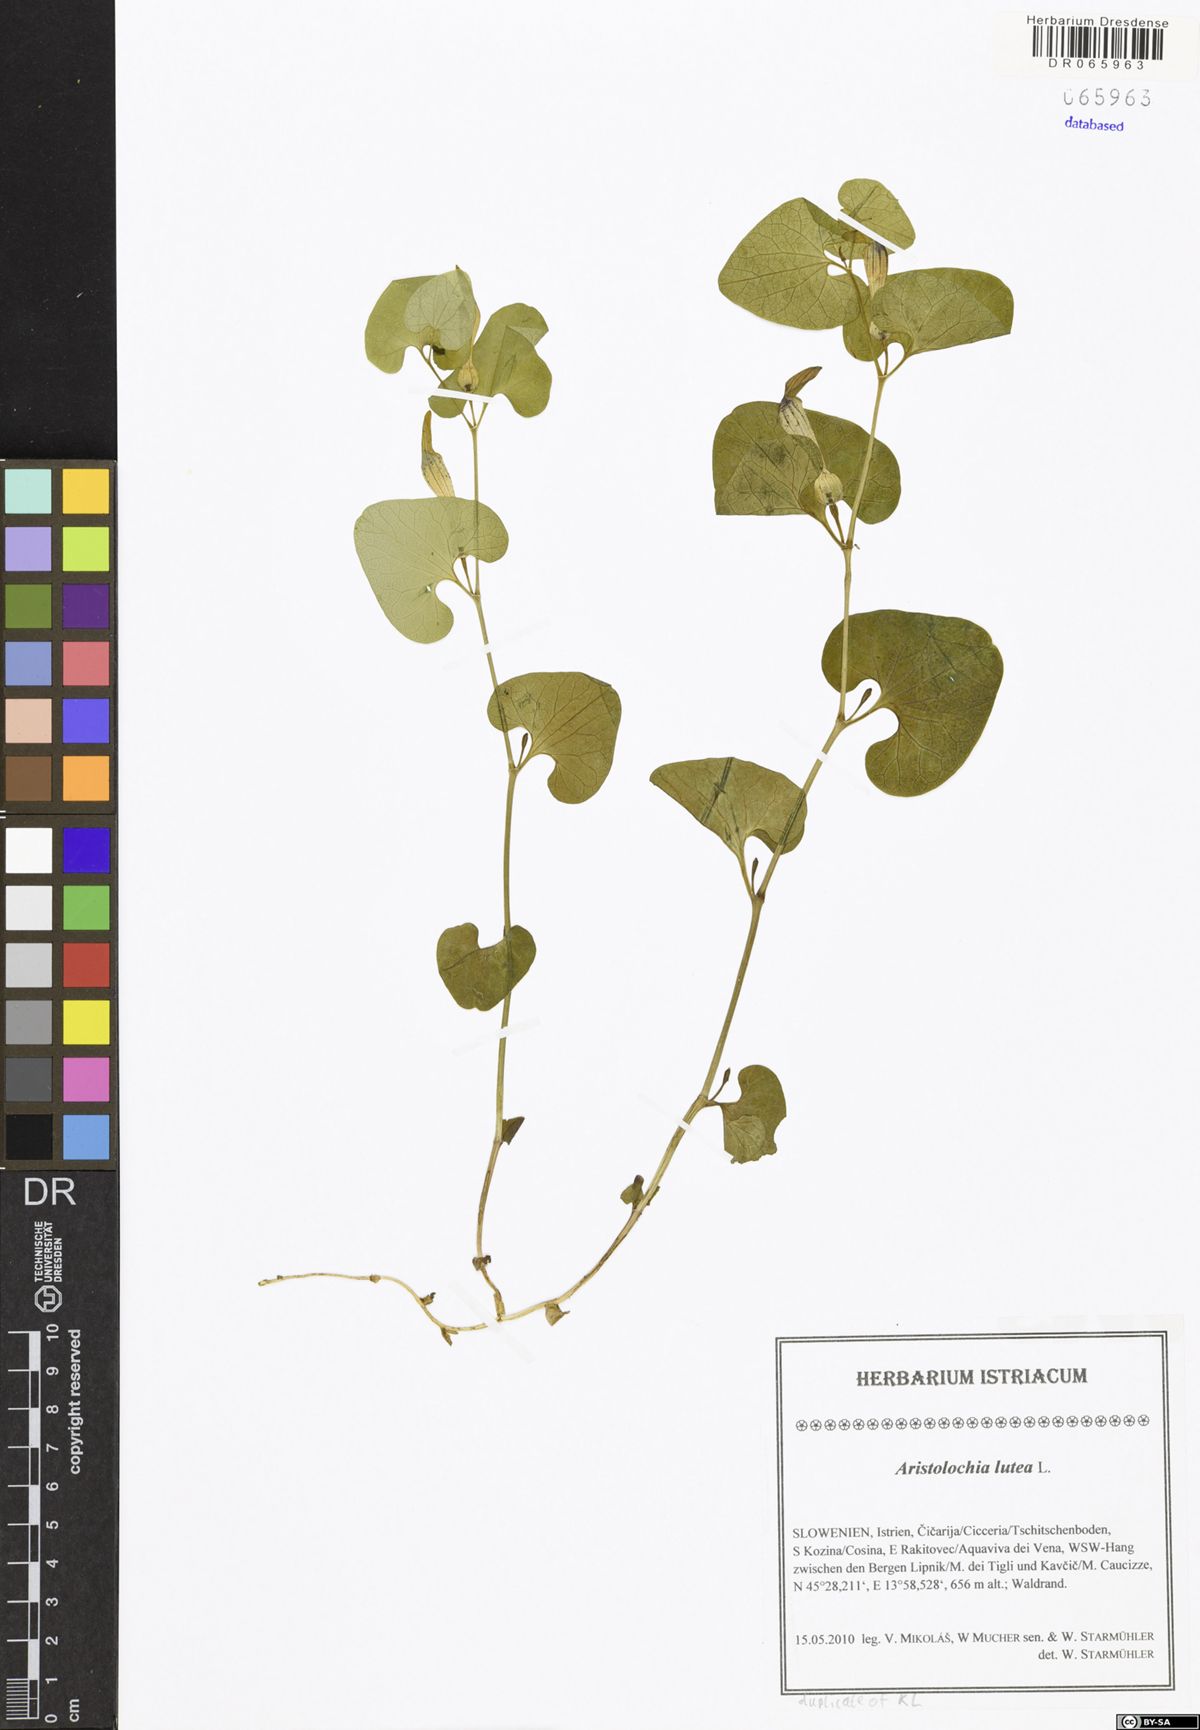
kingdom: Plantae
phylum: Tracheophyta
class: Magnoliopsida
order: Piperales
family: Aristolochiaceae
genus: Aristolochia
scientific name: Aristolochia lutea
